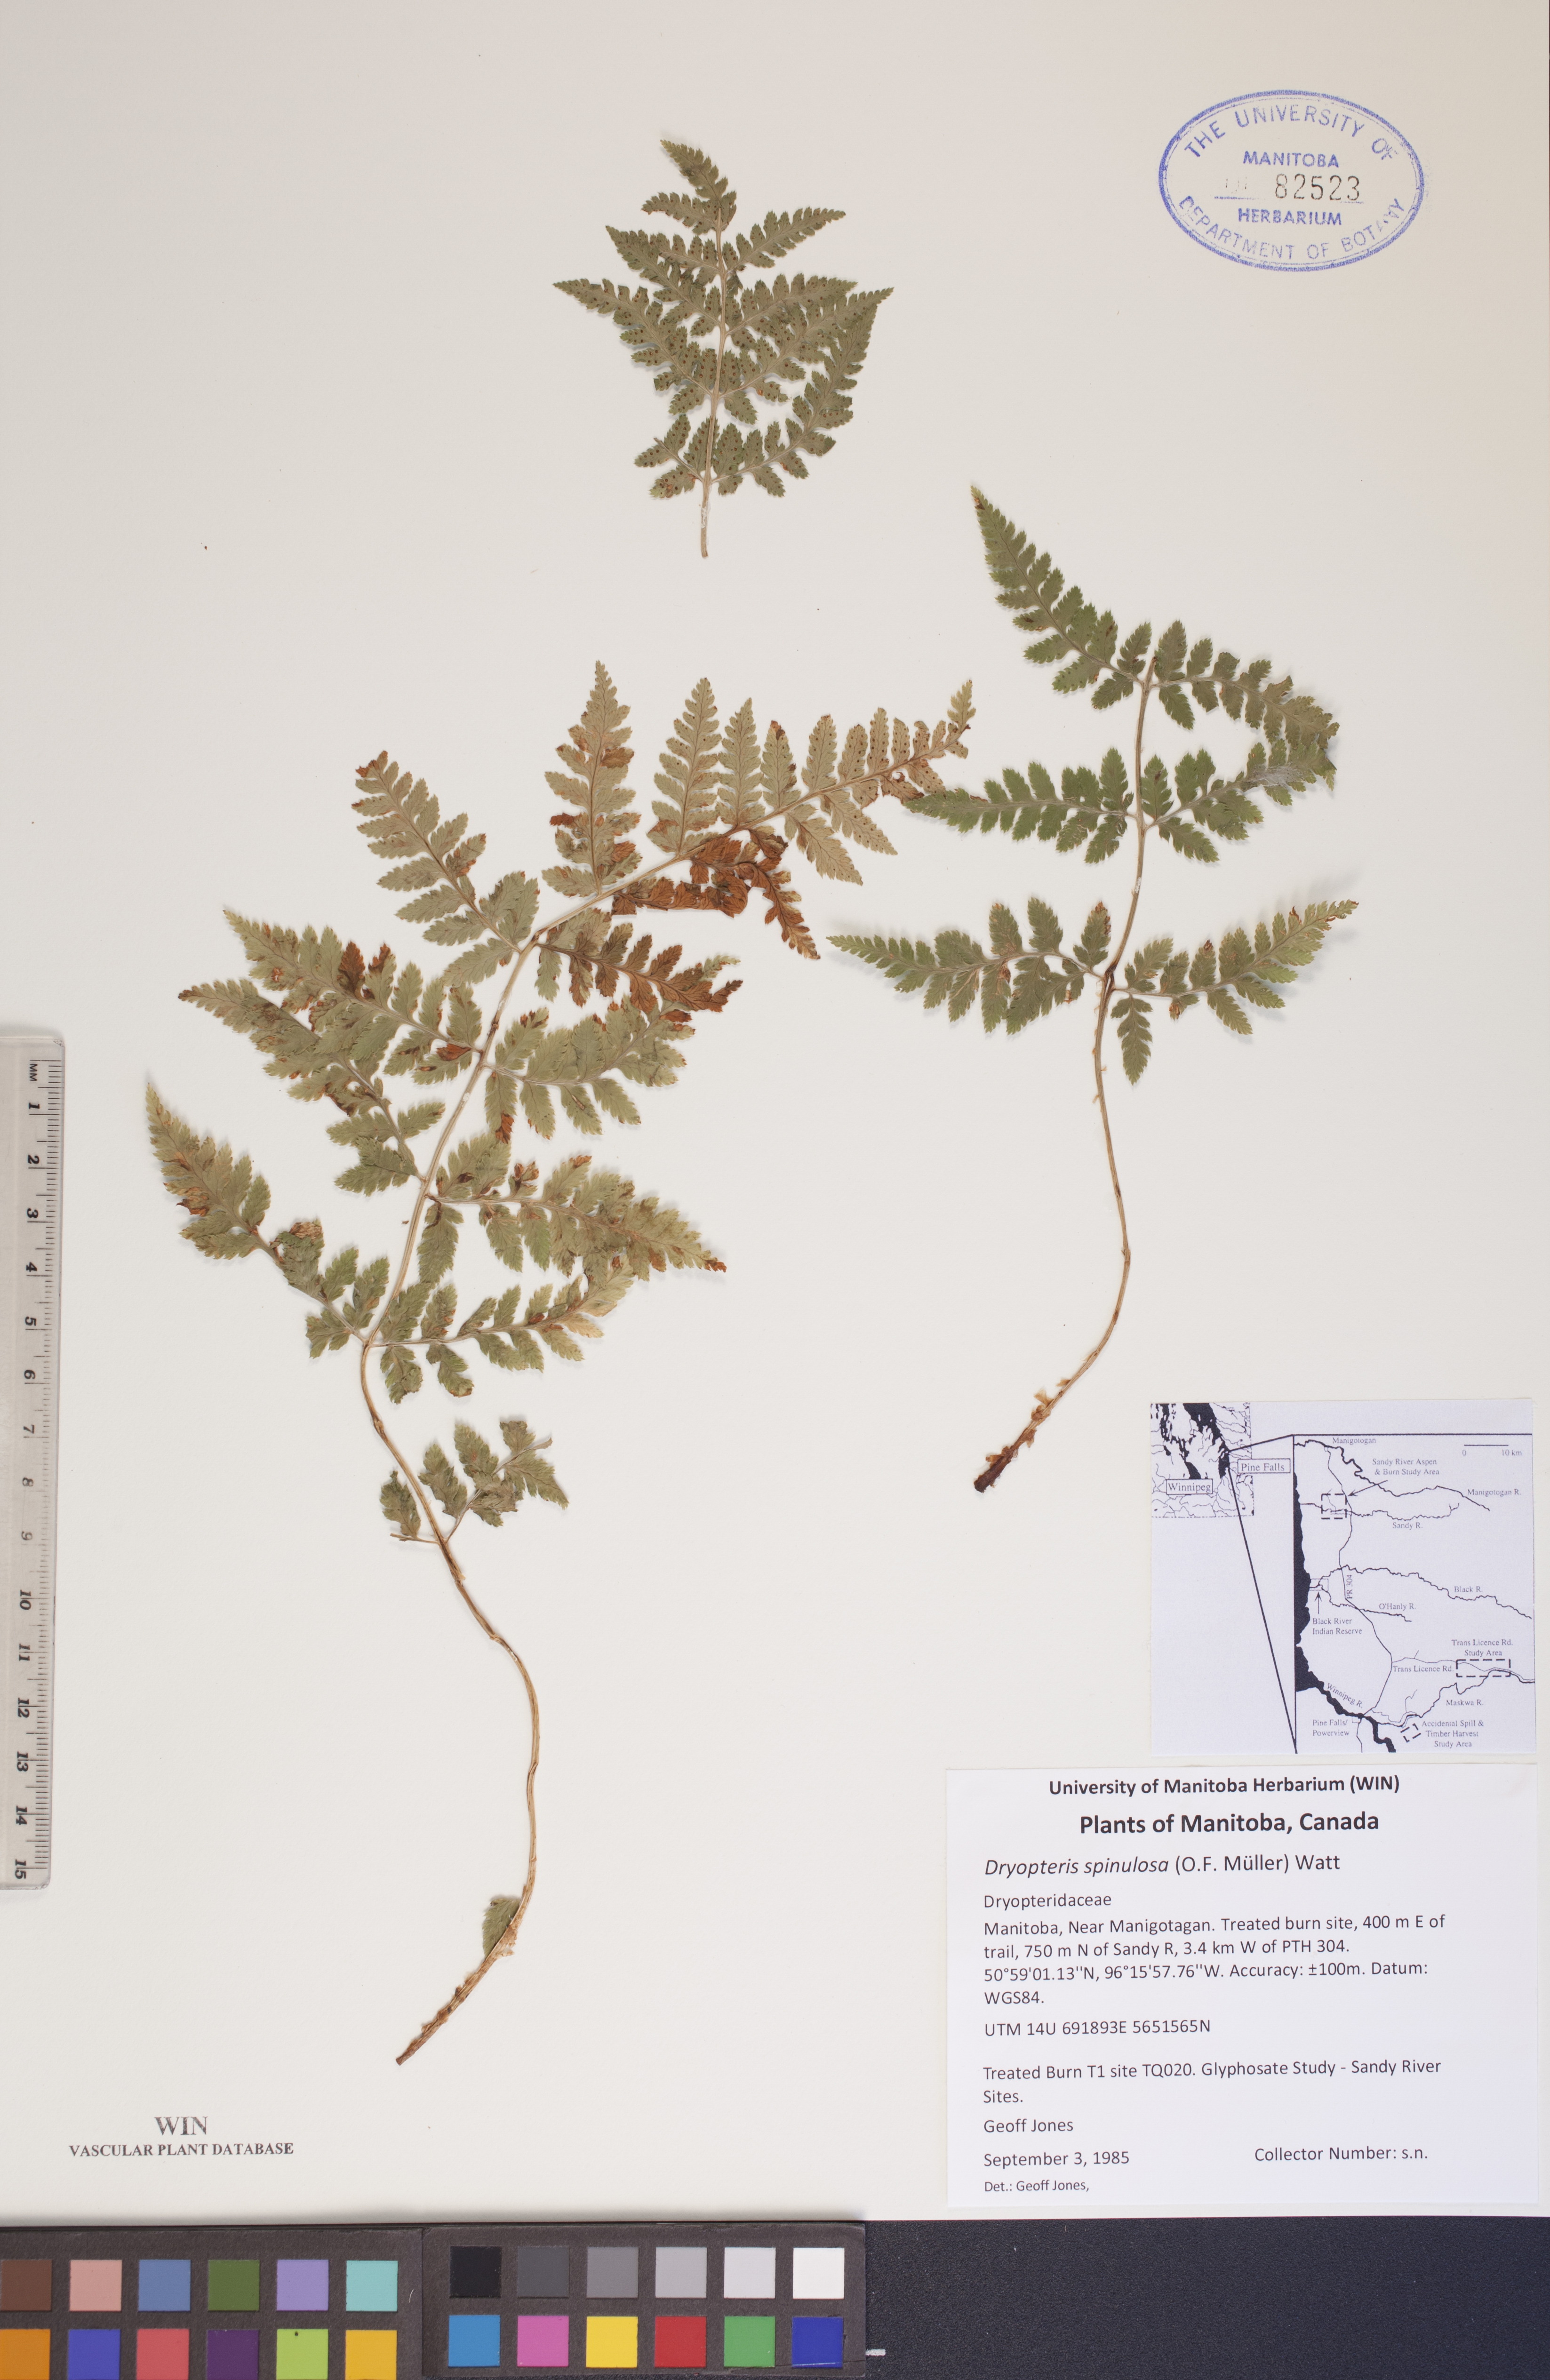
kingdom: Plantae
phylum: Tracheophyta
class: Polypodiopsida
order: Polypodiales
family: Dryopteridaceae
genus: Dryopteris
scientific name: Dryopteris carthusiana
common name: Narrow buckler-fern
